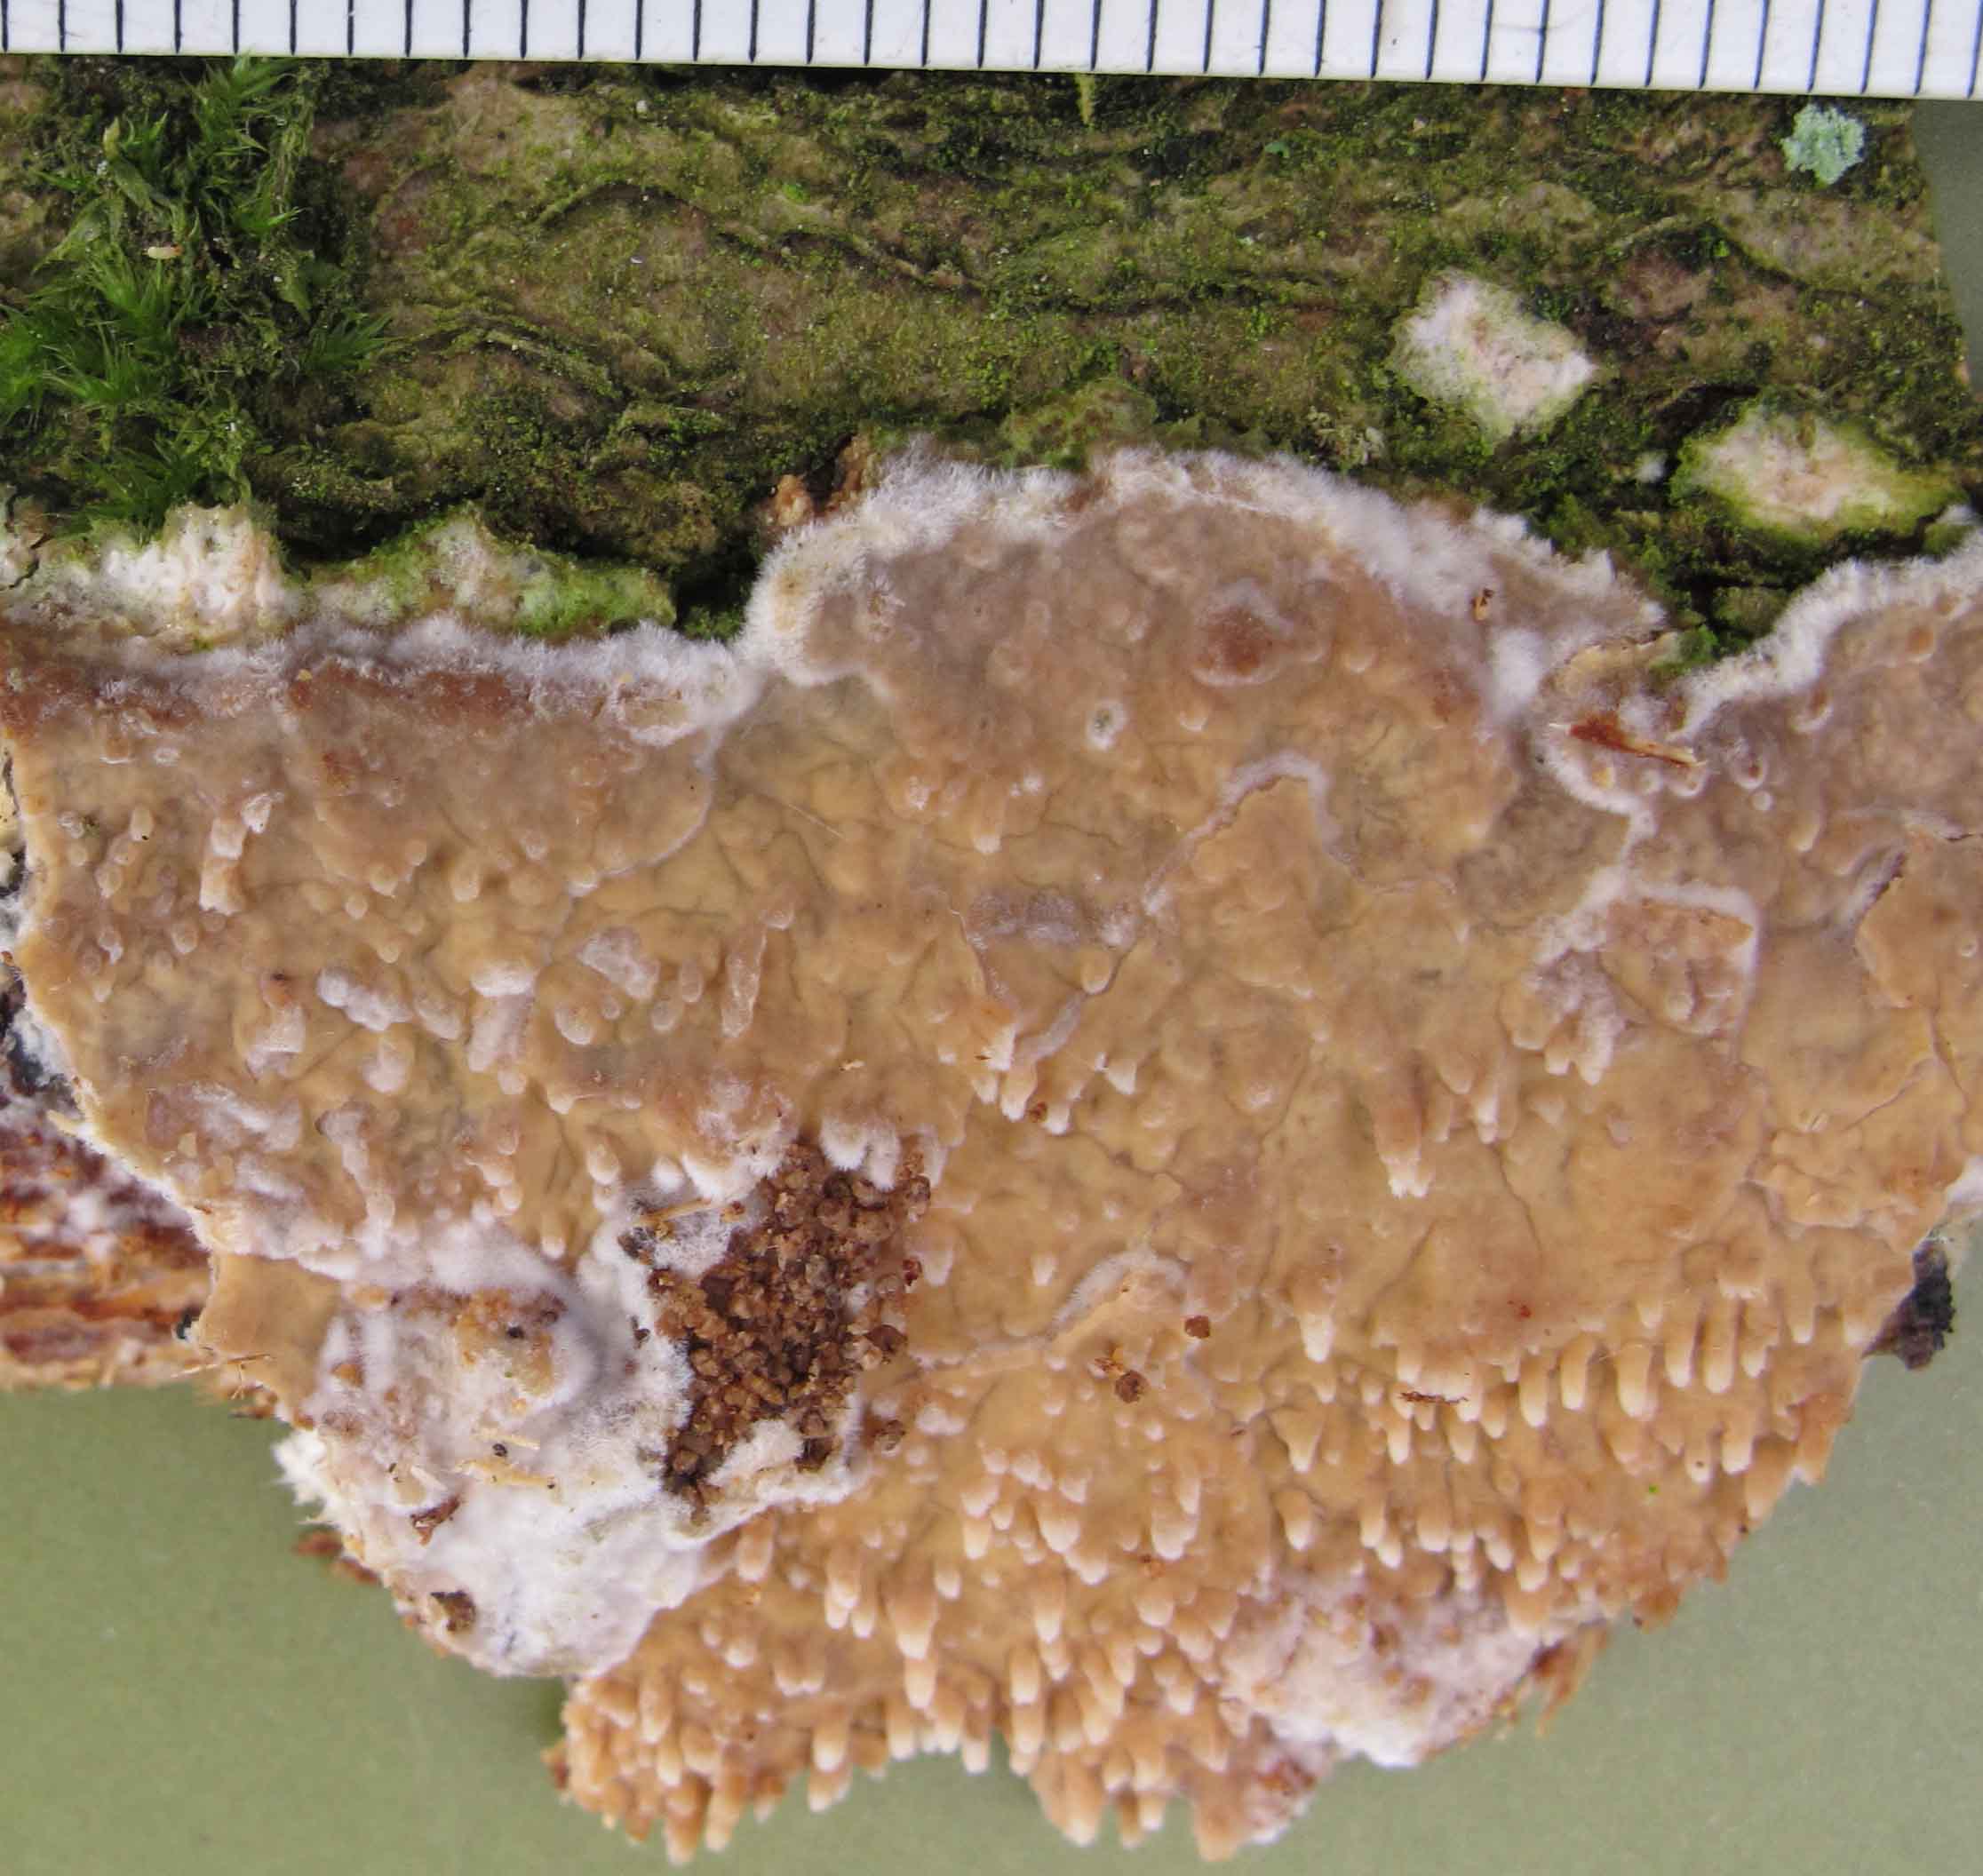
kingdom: Fungi
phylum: Basidiomycota
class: Agaricomycetes
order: Agaricales
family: Radulomycetaceae
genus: Radulomyces
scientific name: Radulomyces molaris
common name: tandet naftalinskind
